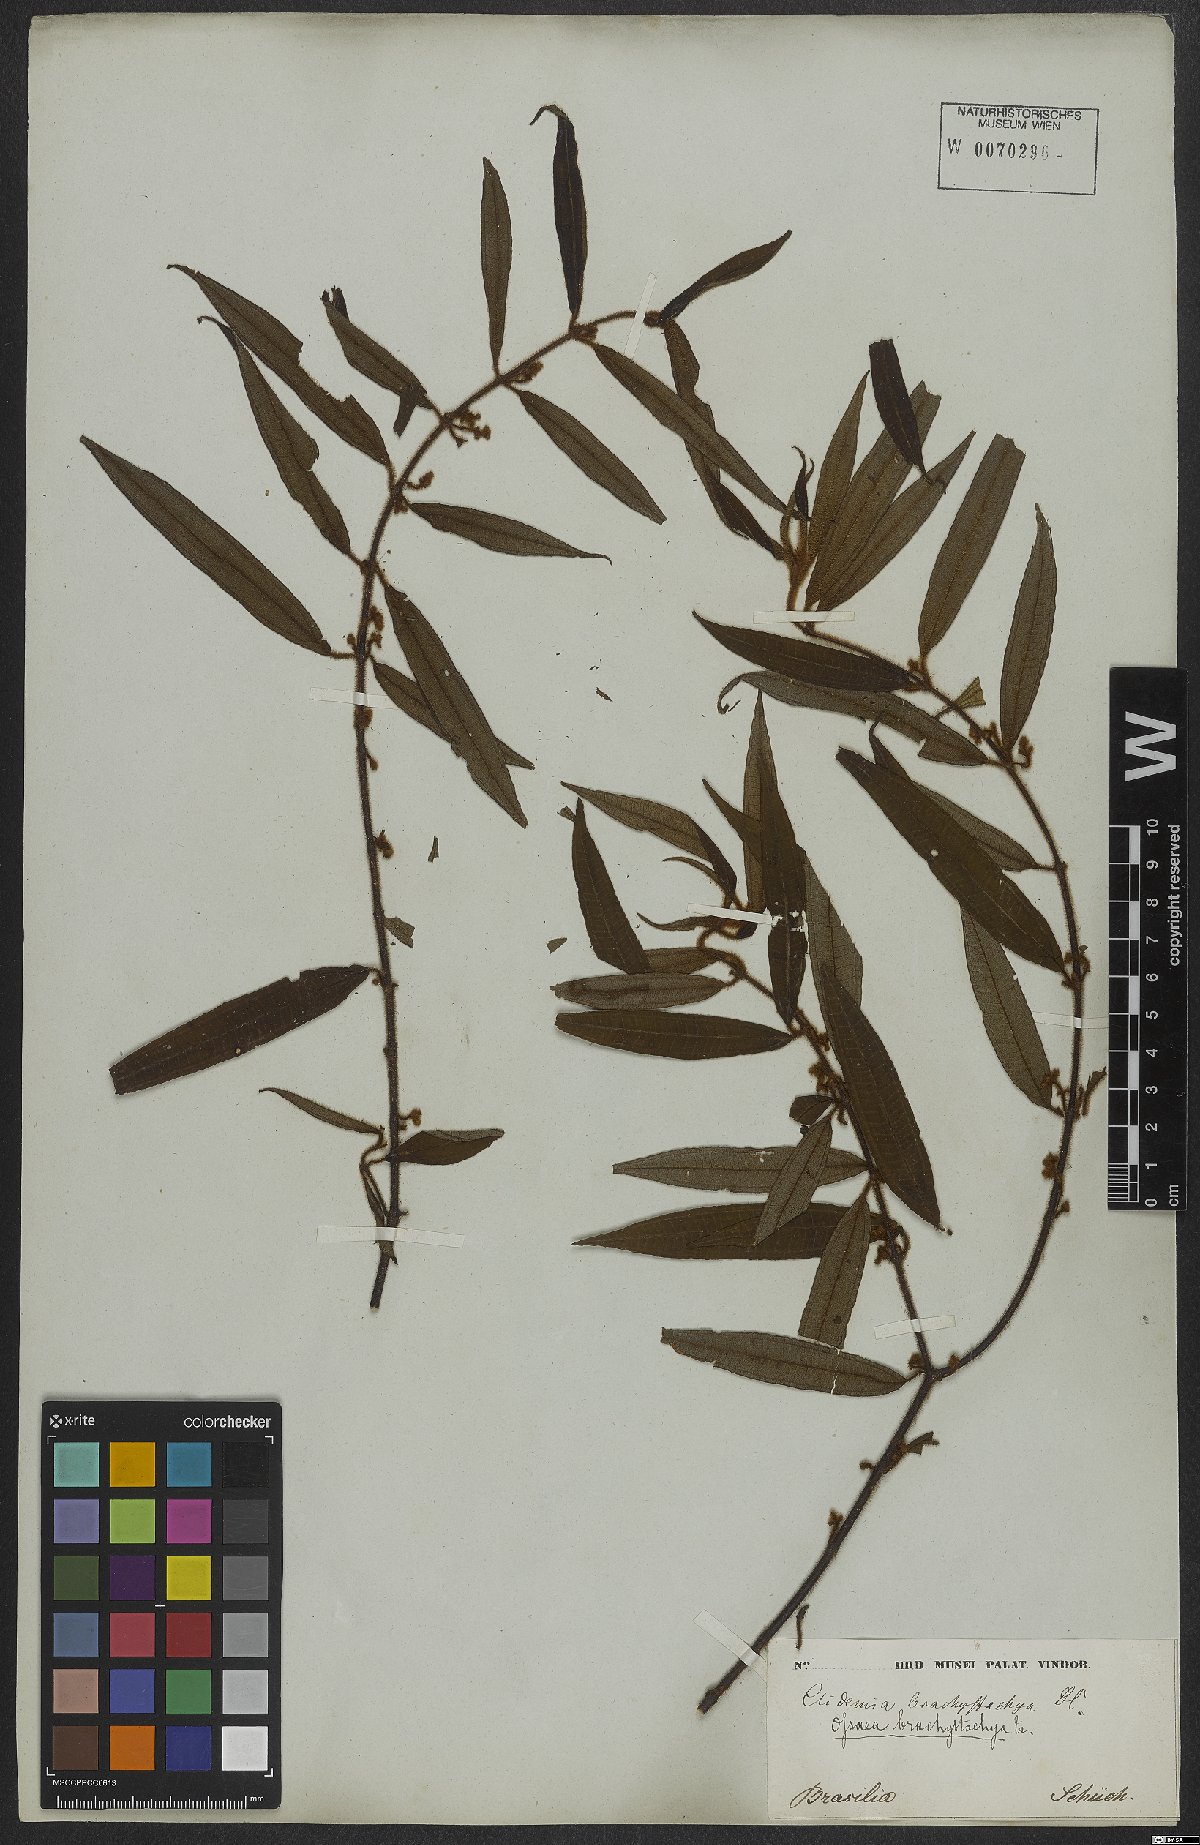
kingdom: Plantae
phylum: Tracheophyta
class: Magnoliopsida
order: Myrtales
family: Melastomataceae
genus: Miconia
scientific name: Miconia amygdaloides
